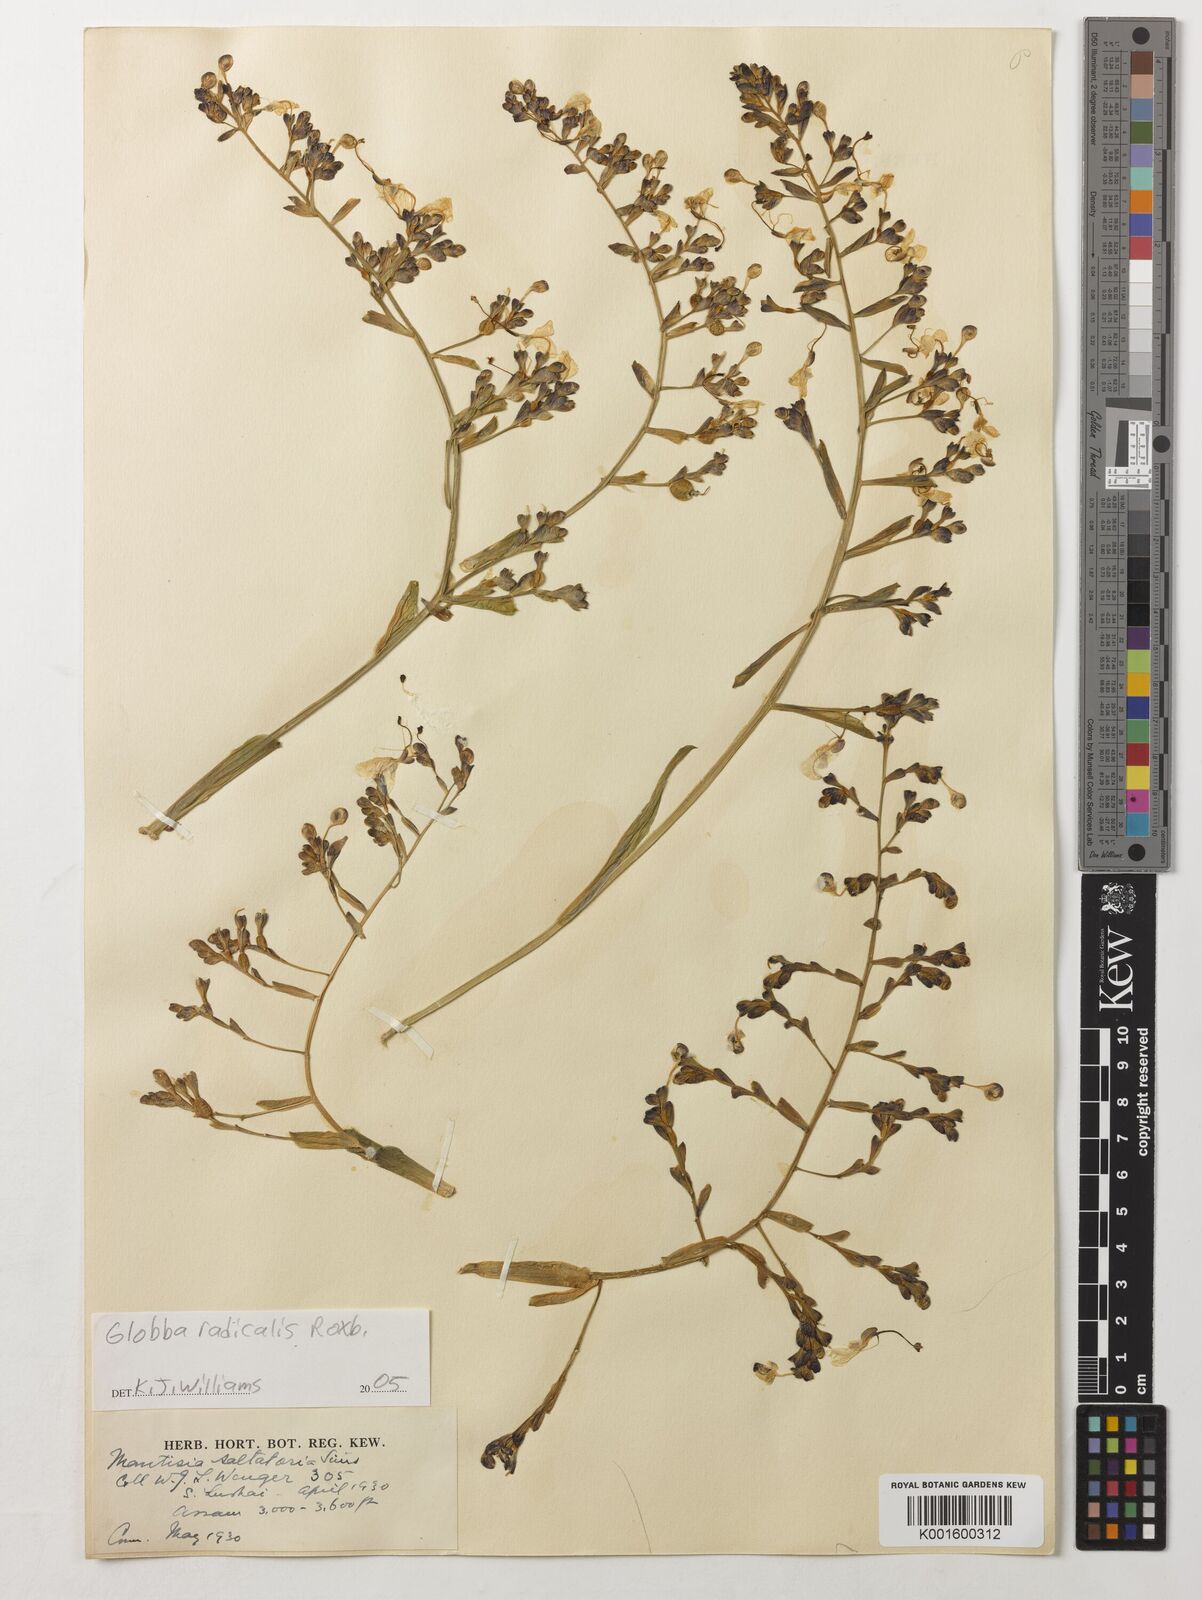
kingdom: Plantae
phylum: Tracheophyta
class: Liliopsida
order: Zingiberales
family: Zingiberaceae
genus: Globba
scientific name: Globba radicalis
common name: Dancing girl
